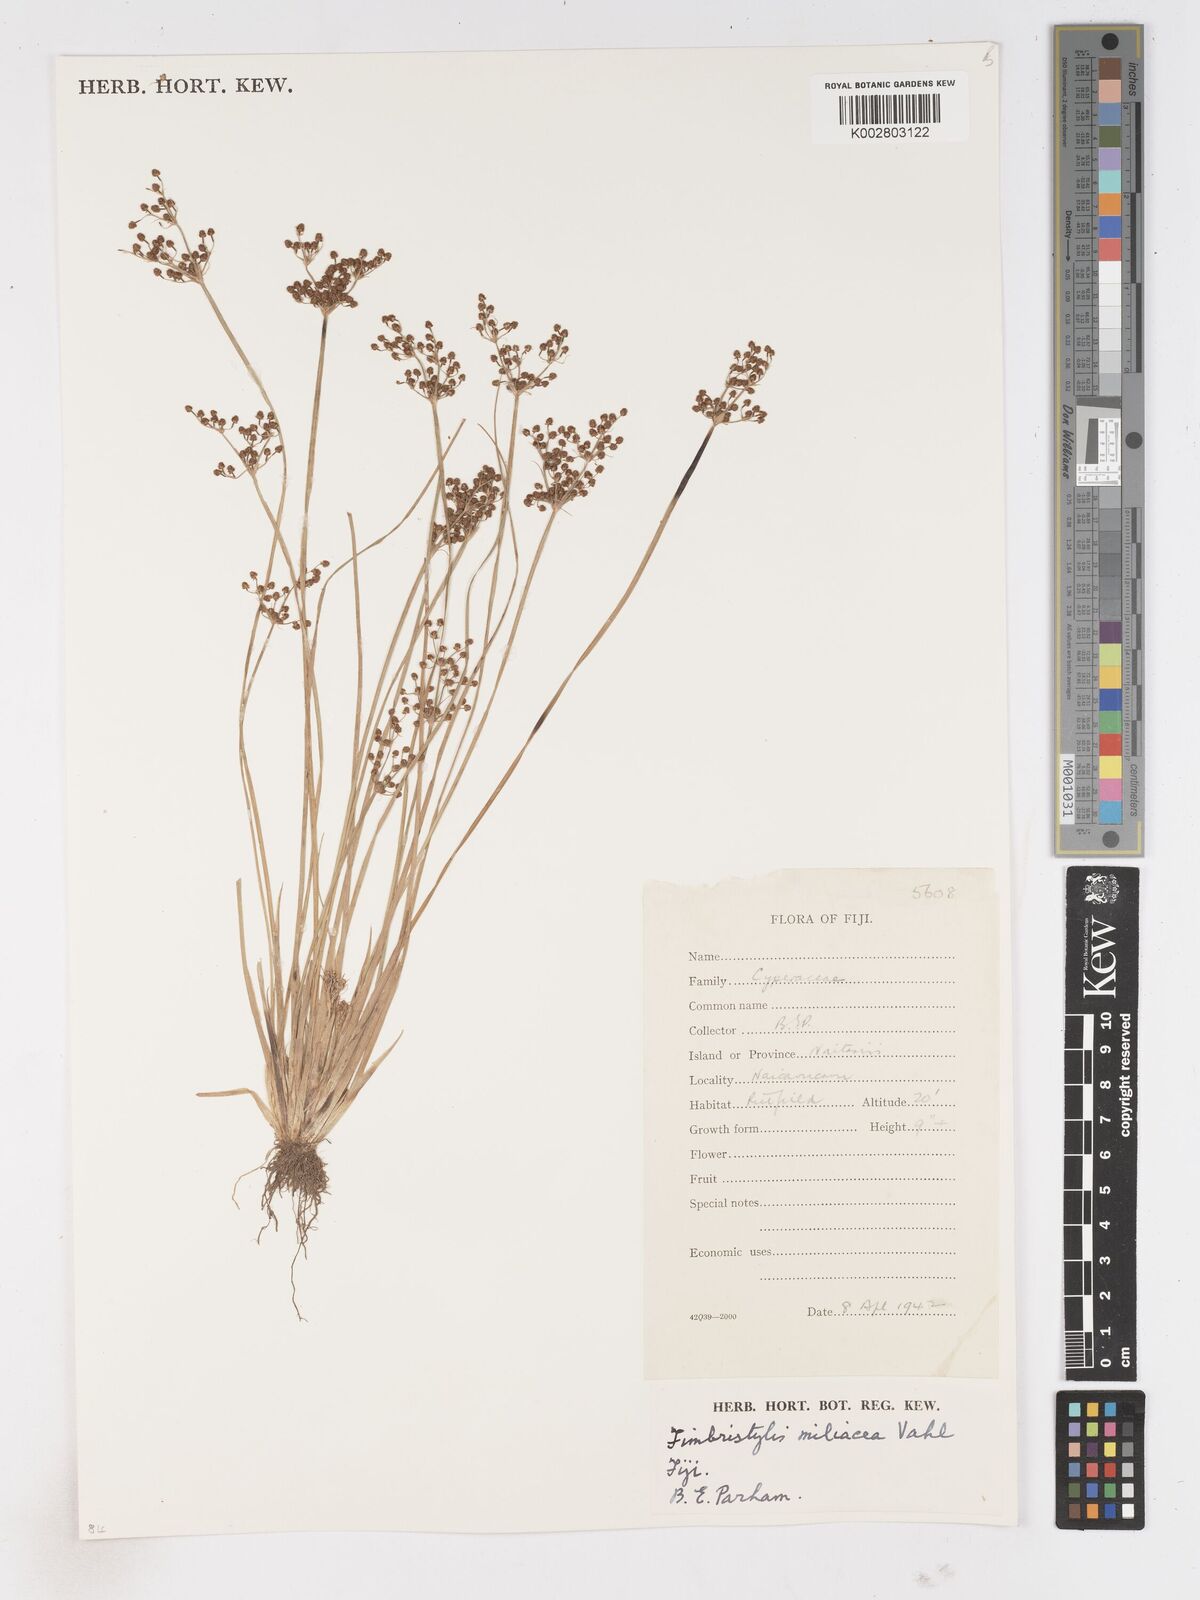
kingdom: Plantae
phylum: Tracheophyta
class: Liliopsida
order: Poales
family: Cyperaceae
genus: Fimbristylis
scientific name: Fimbristylis littoralis
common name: Fimbry
